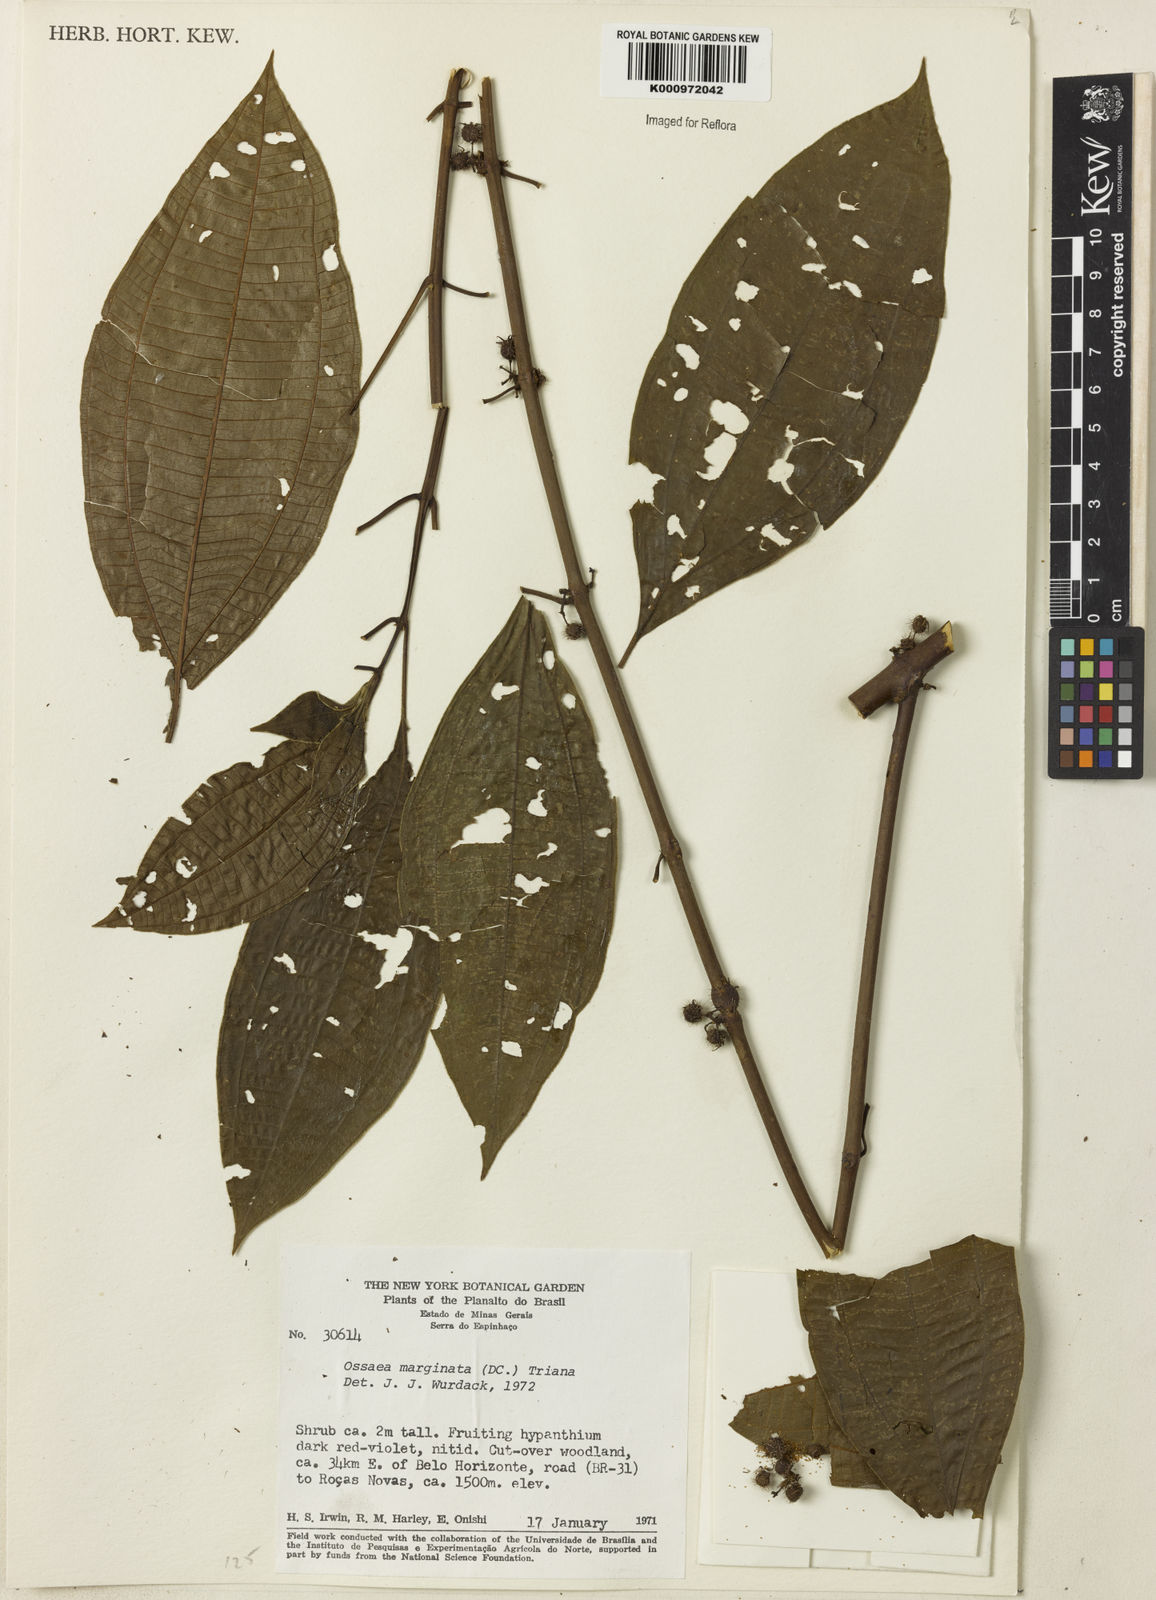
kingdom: Plantae
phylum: Tracheophyta
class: Magnoliopsida
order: Myrtales
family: Melastomataceae
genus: Miconia
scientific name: Miconia leamarginata
